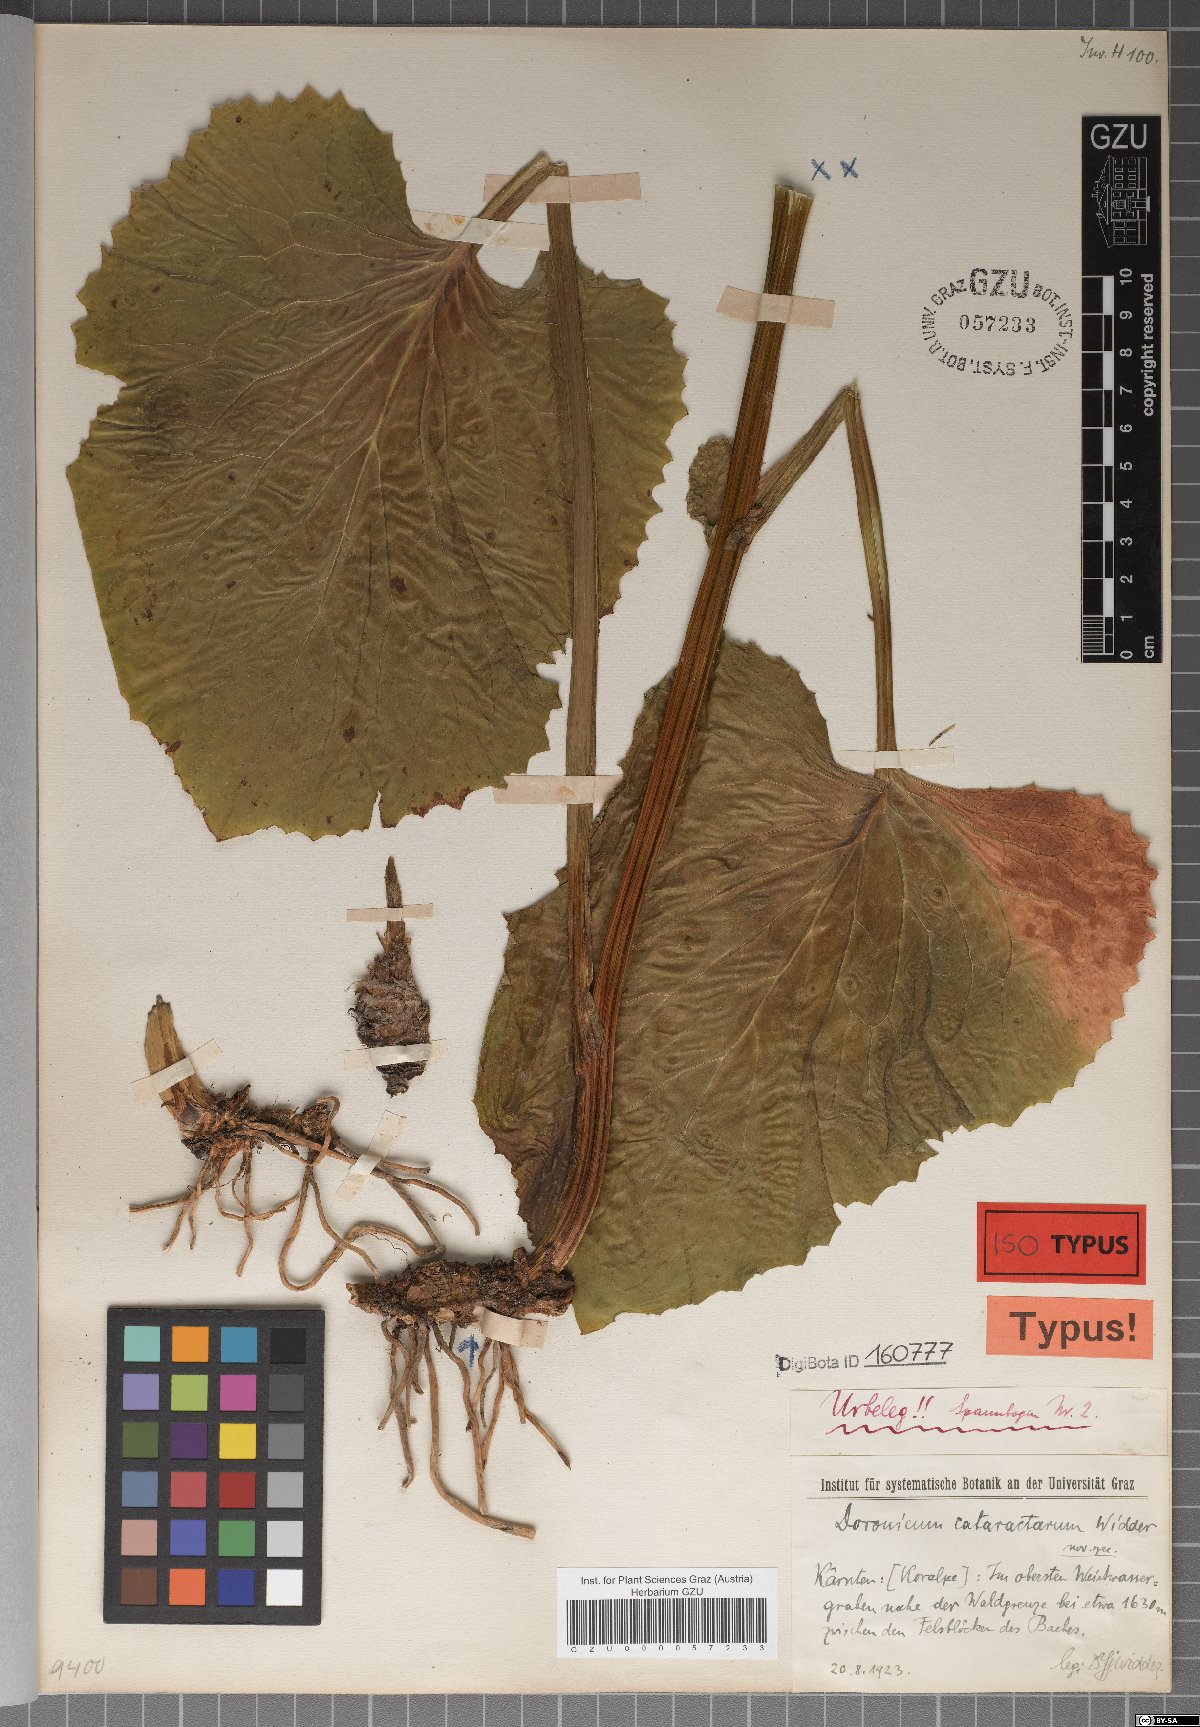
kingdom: Plantae
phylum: Tracheophyta
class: Magnoliopsida
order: Asterales
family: Asteraceae
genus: Doronicum
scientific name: Doronicum cataractarum
